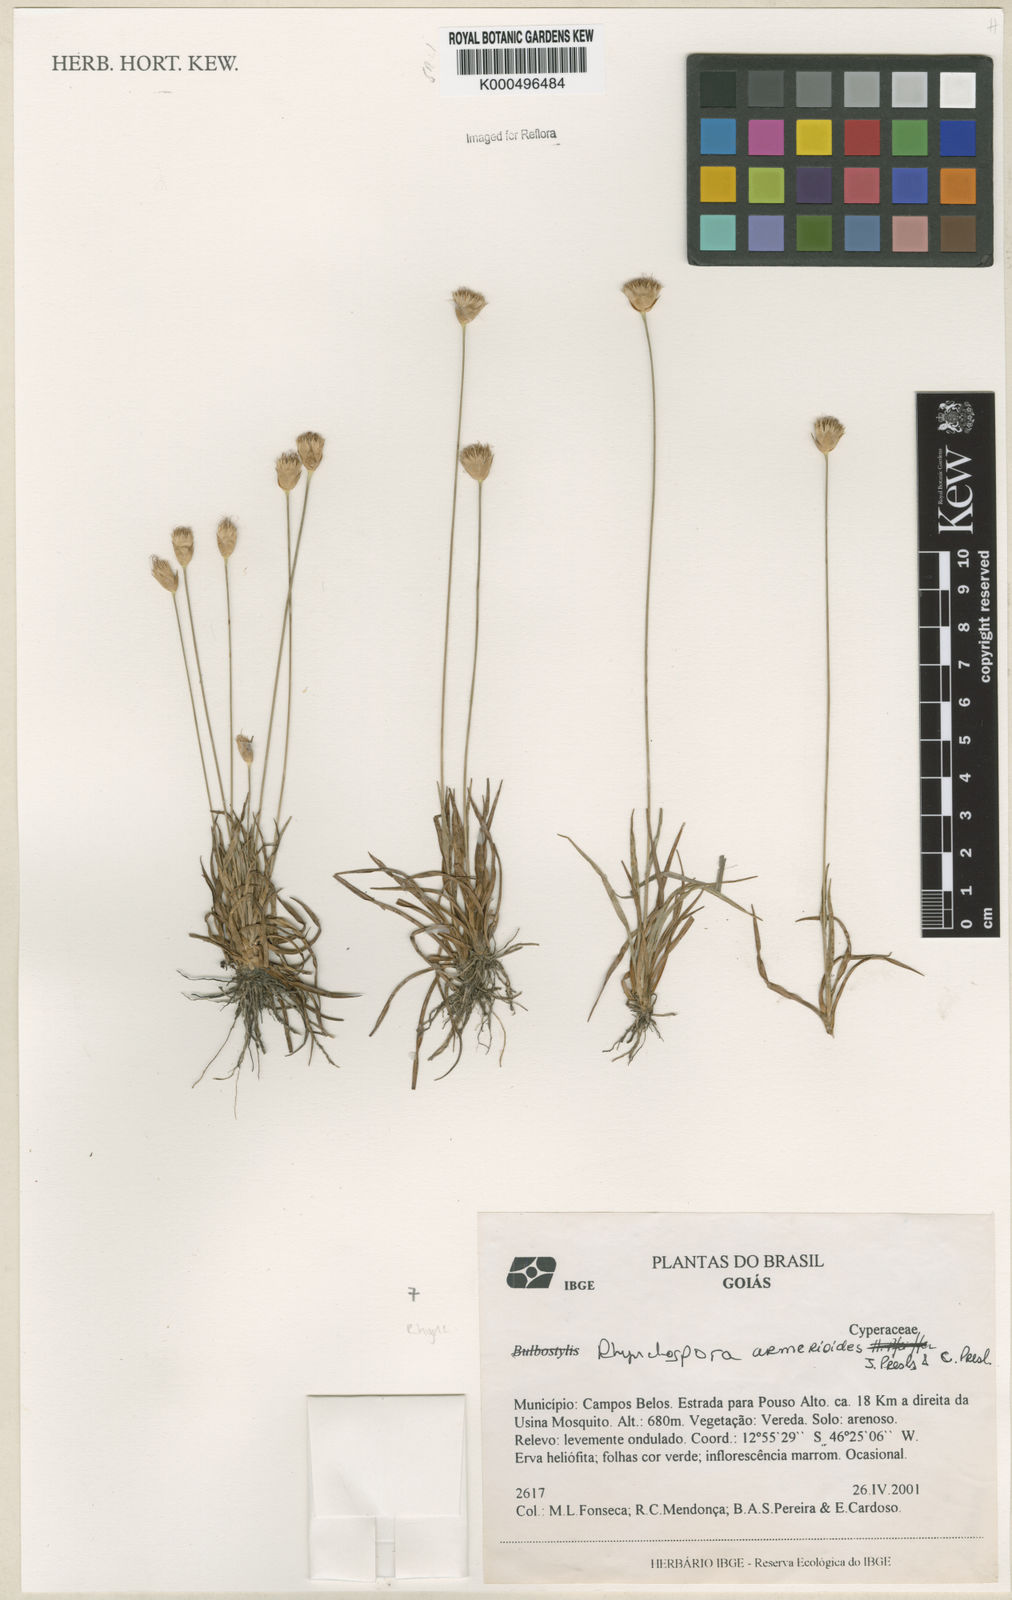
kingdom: Plantae
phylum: Tracheophyta
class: Liliopsida
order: Poales
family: Cyperaceae
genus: Rhynchospora
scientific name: Rhynchospora armerioides
